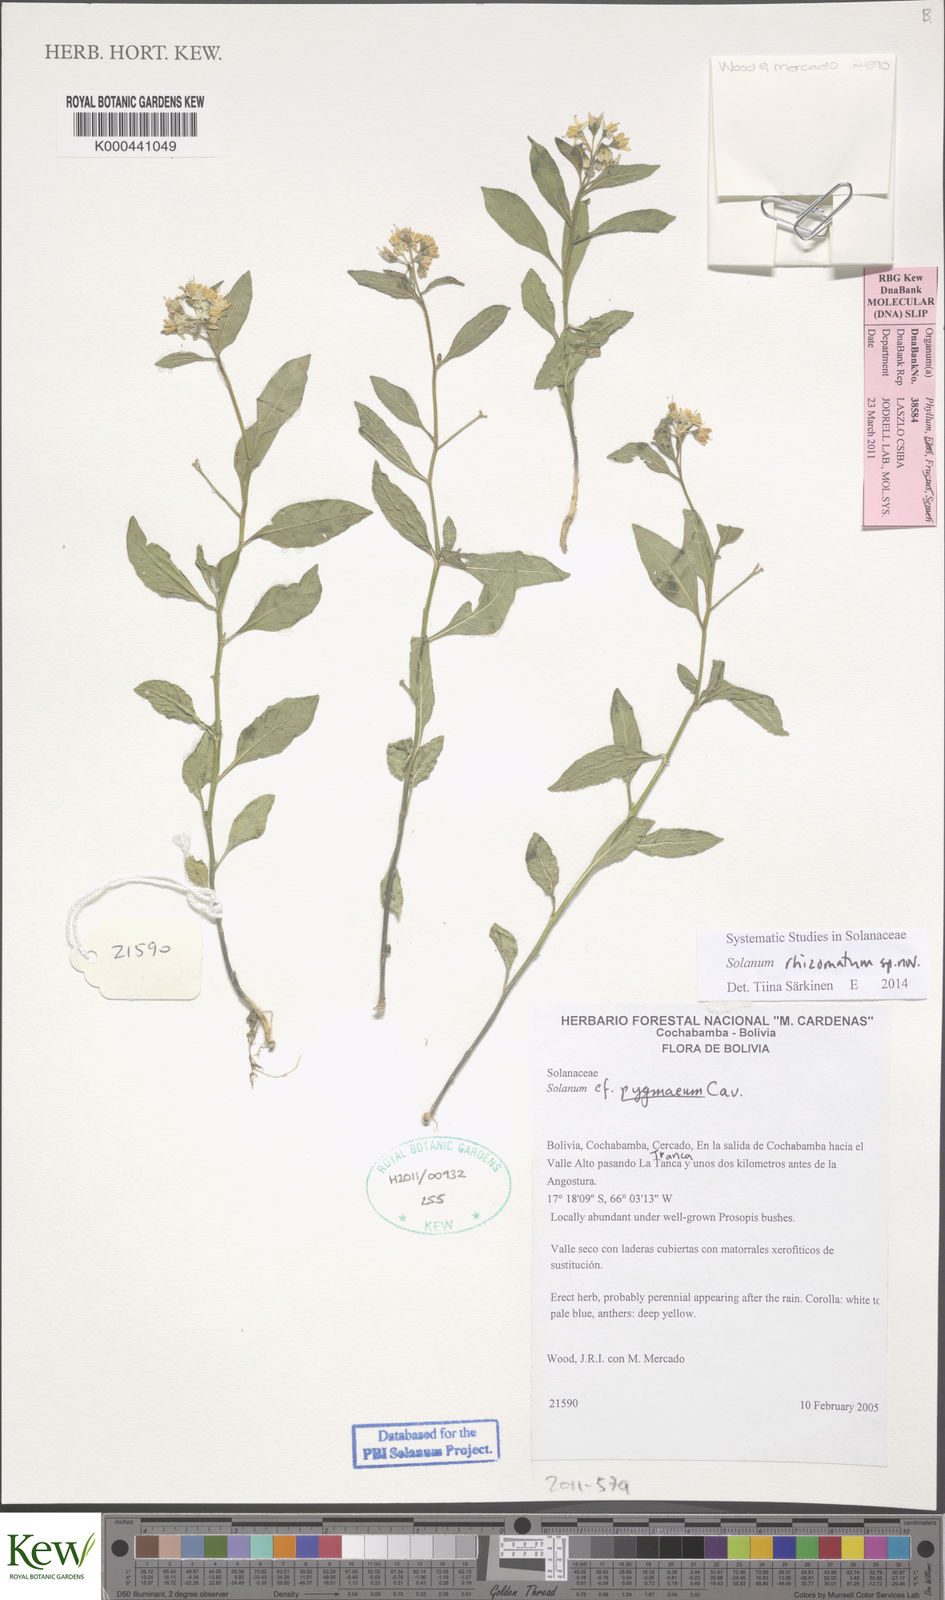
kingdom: Plantae
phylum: Tracheophyta
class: Magnoliopsida
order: Solanales
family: Solanaceae
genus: Solanum
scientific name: Solanum
